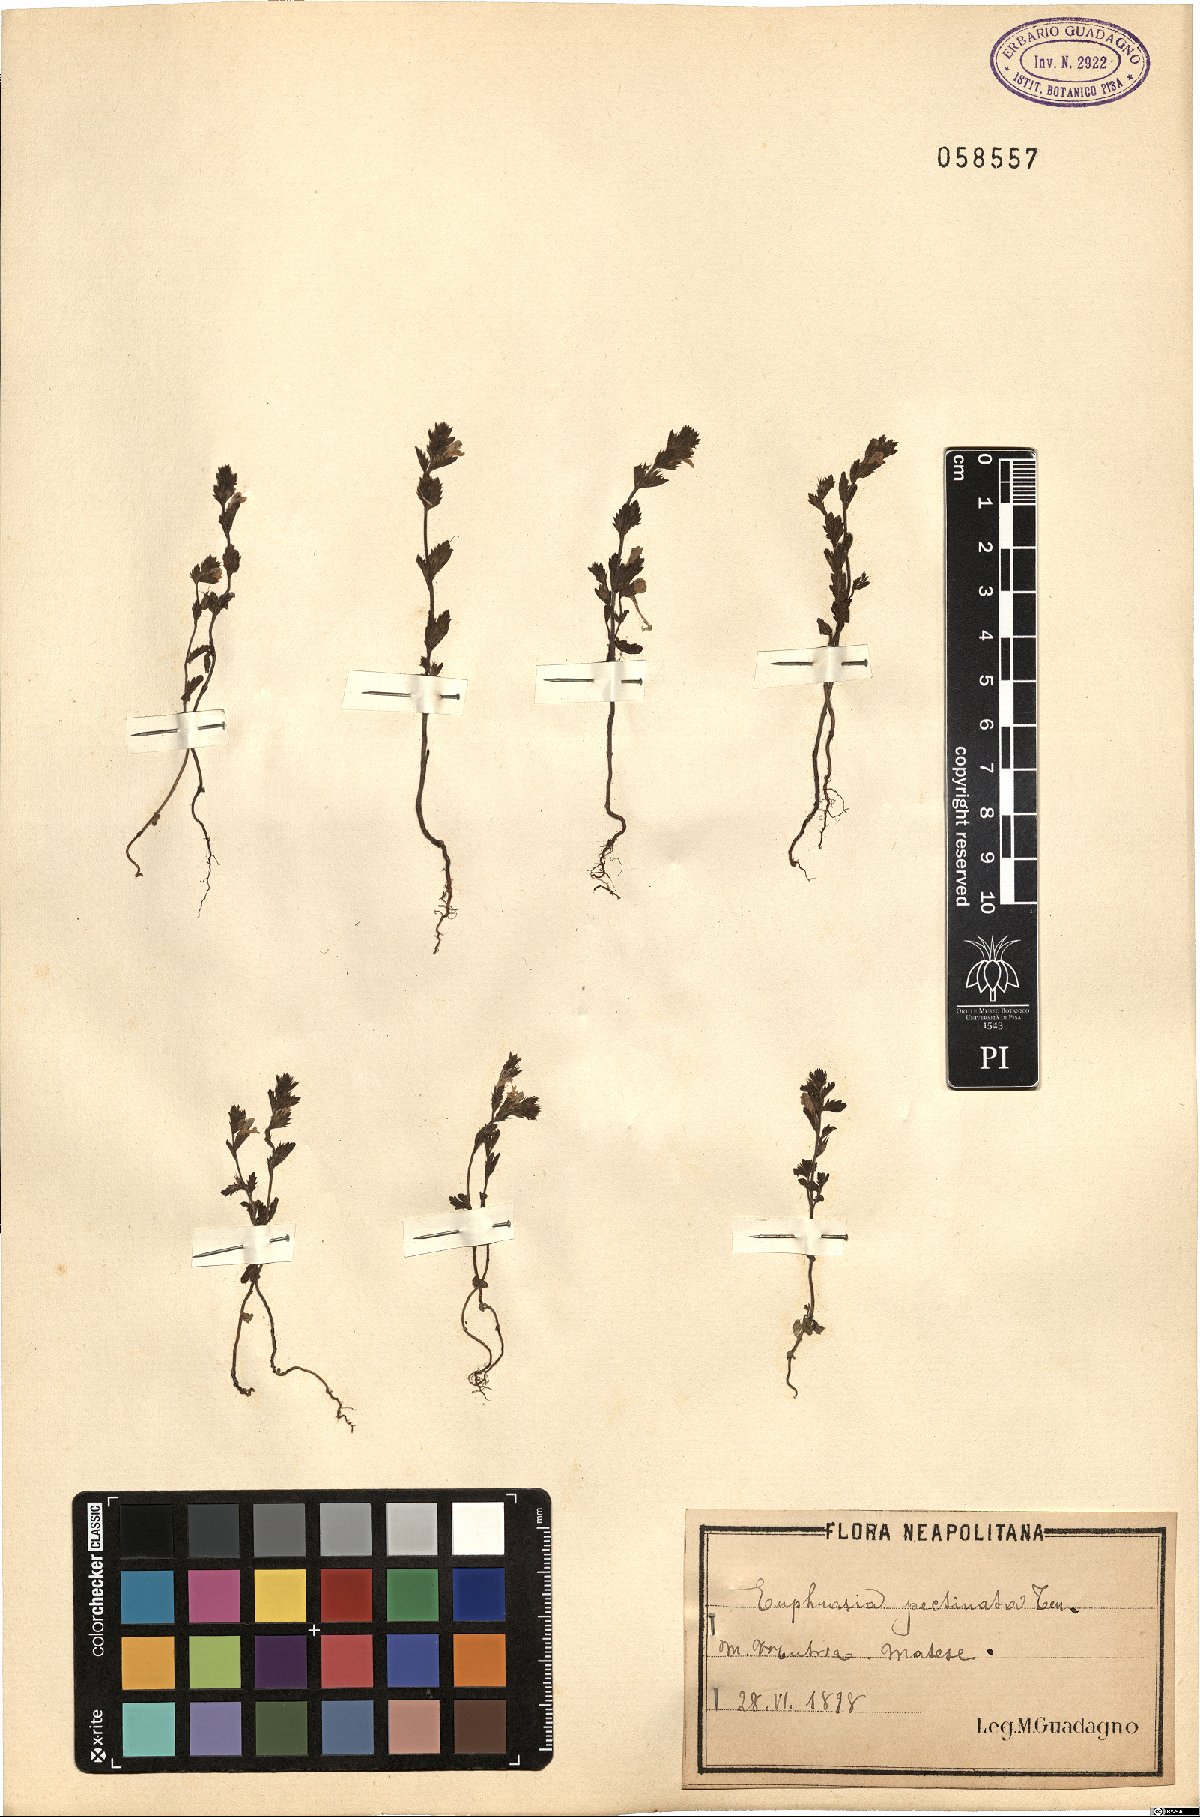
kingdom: Plantae
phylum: Tracheophyta
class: Magnoliopsida
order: Lamiales
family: Orobanchaceae
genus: Euphrasia
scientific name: Euphrasia pectinata
